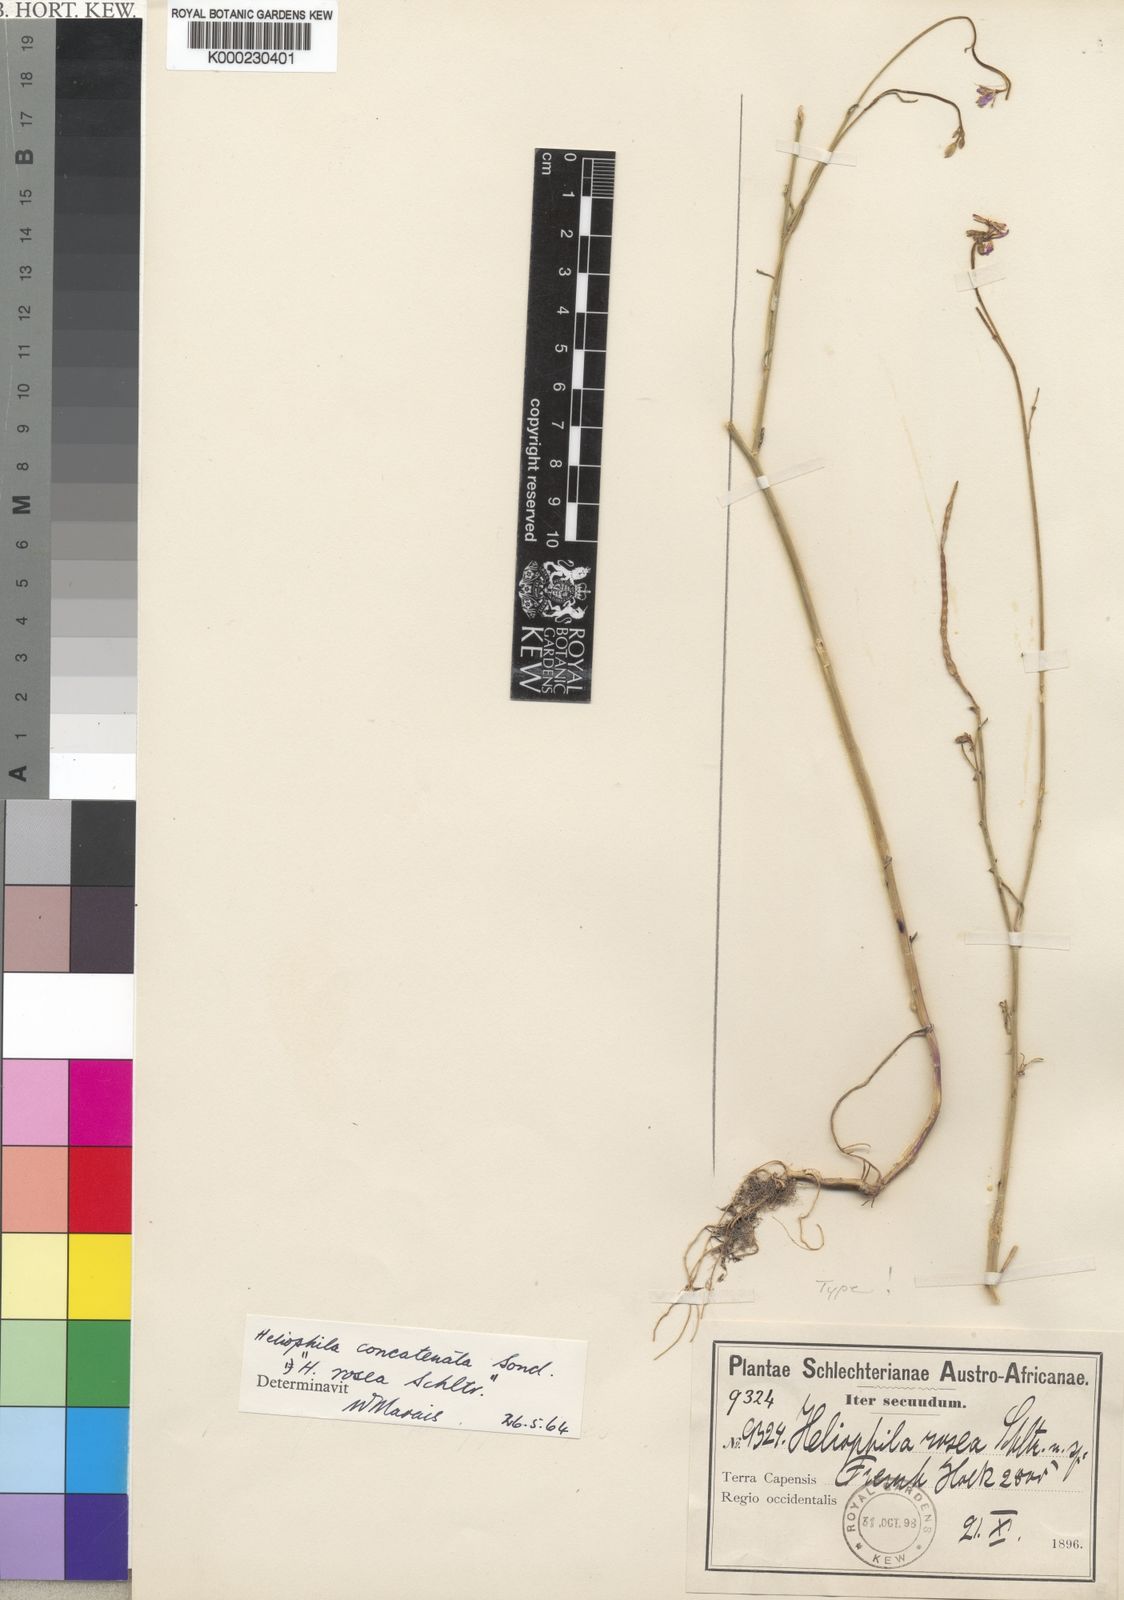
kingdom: Plantae
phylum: Tracheophyta
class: Magnoliopsida
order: Brassicales
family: Brassicaceae
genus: Heliophila
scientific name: Heliophila concatenata
